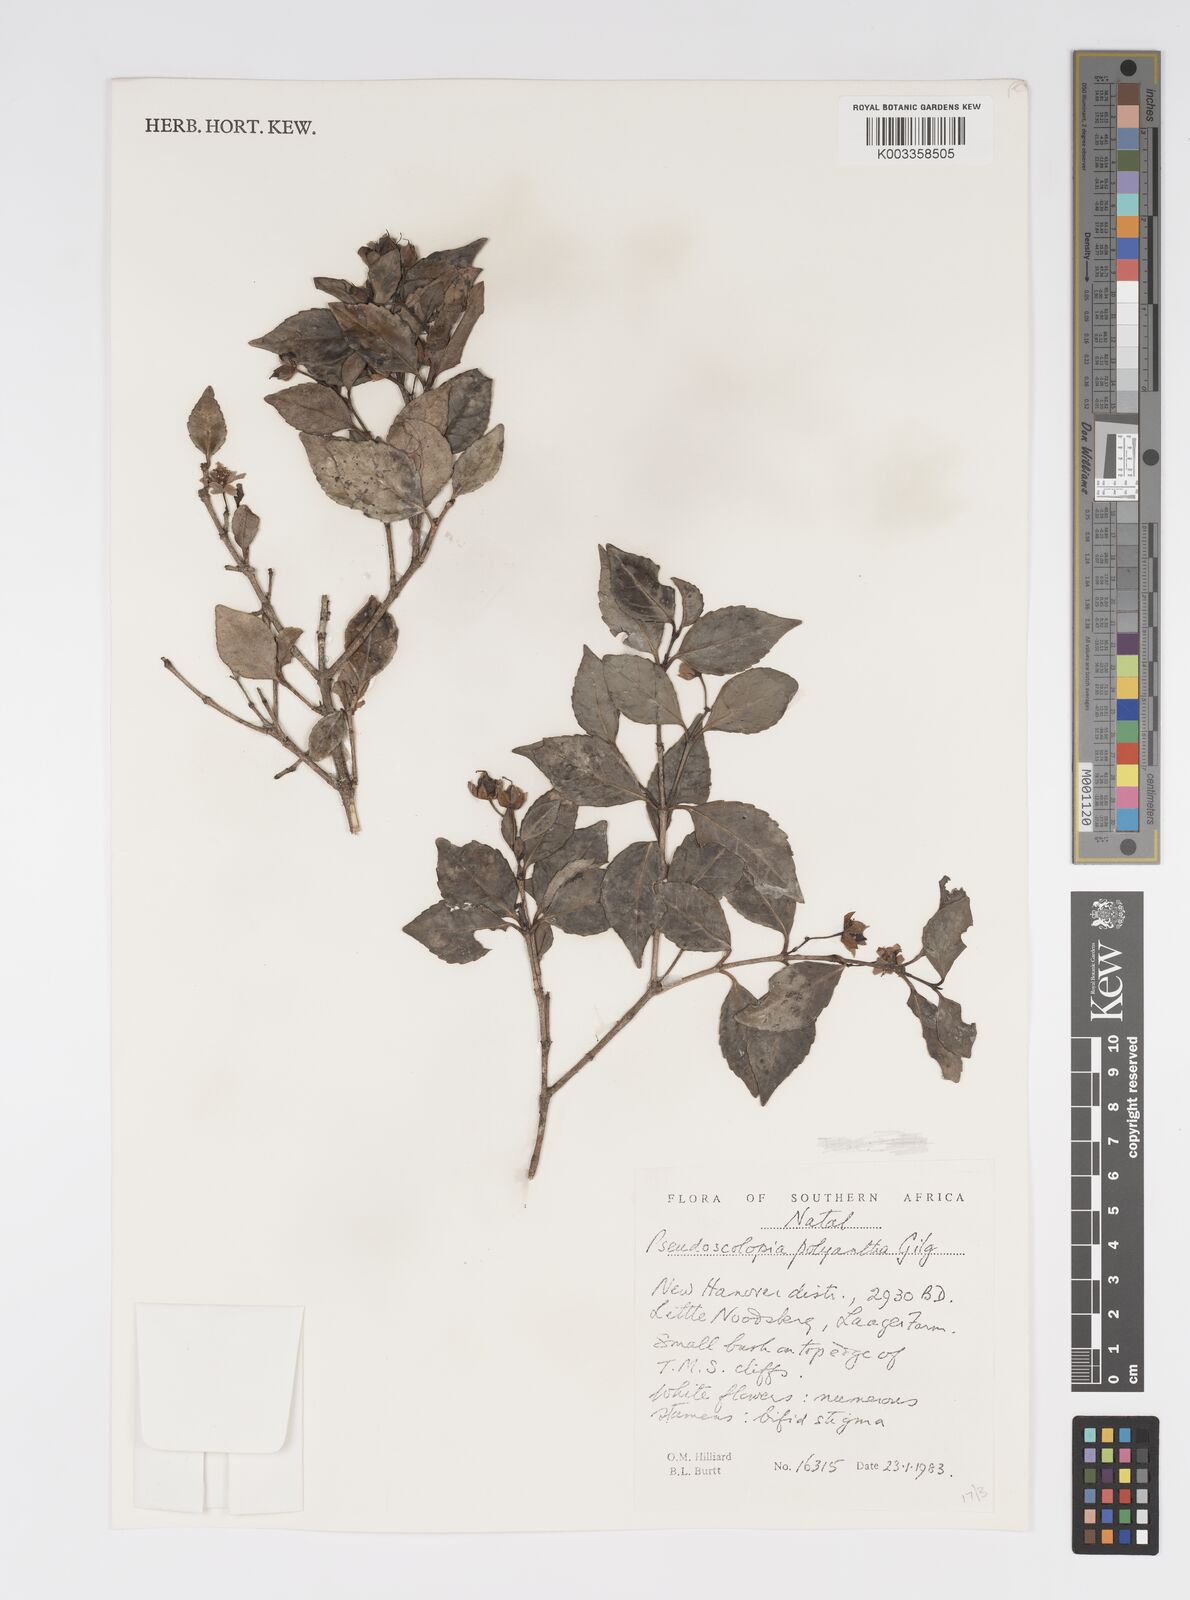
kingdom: Plantae
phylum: Tracheophyta
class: Magnoliopsida
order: Malpighiales
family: Salicaceae
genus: Pseudoscolopia
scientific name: Pseudoscolopia polyantha
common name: Sandstone red-stem
